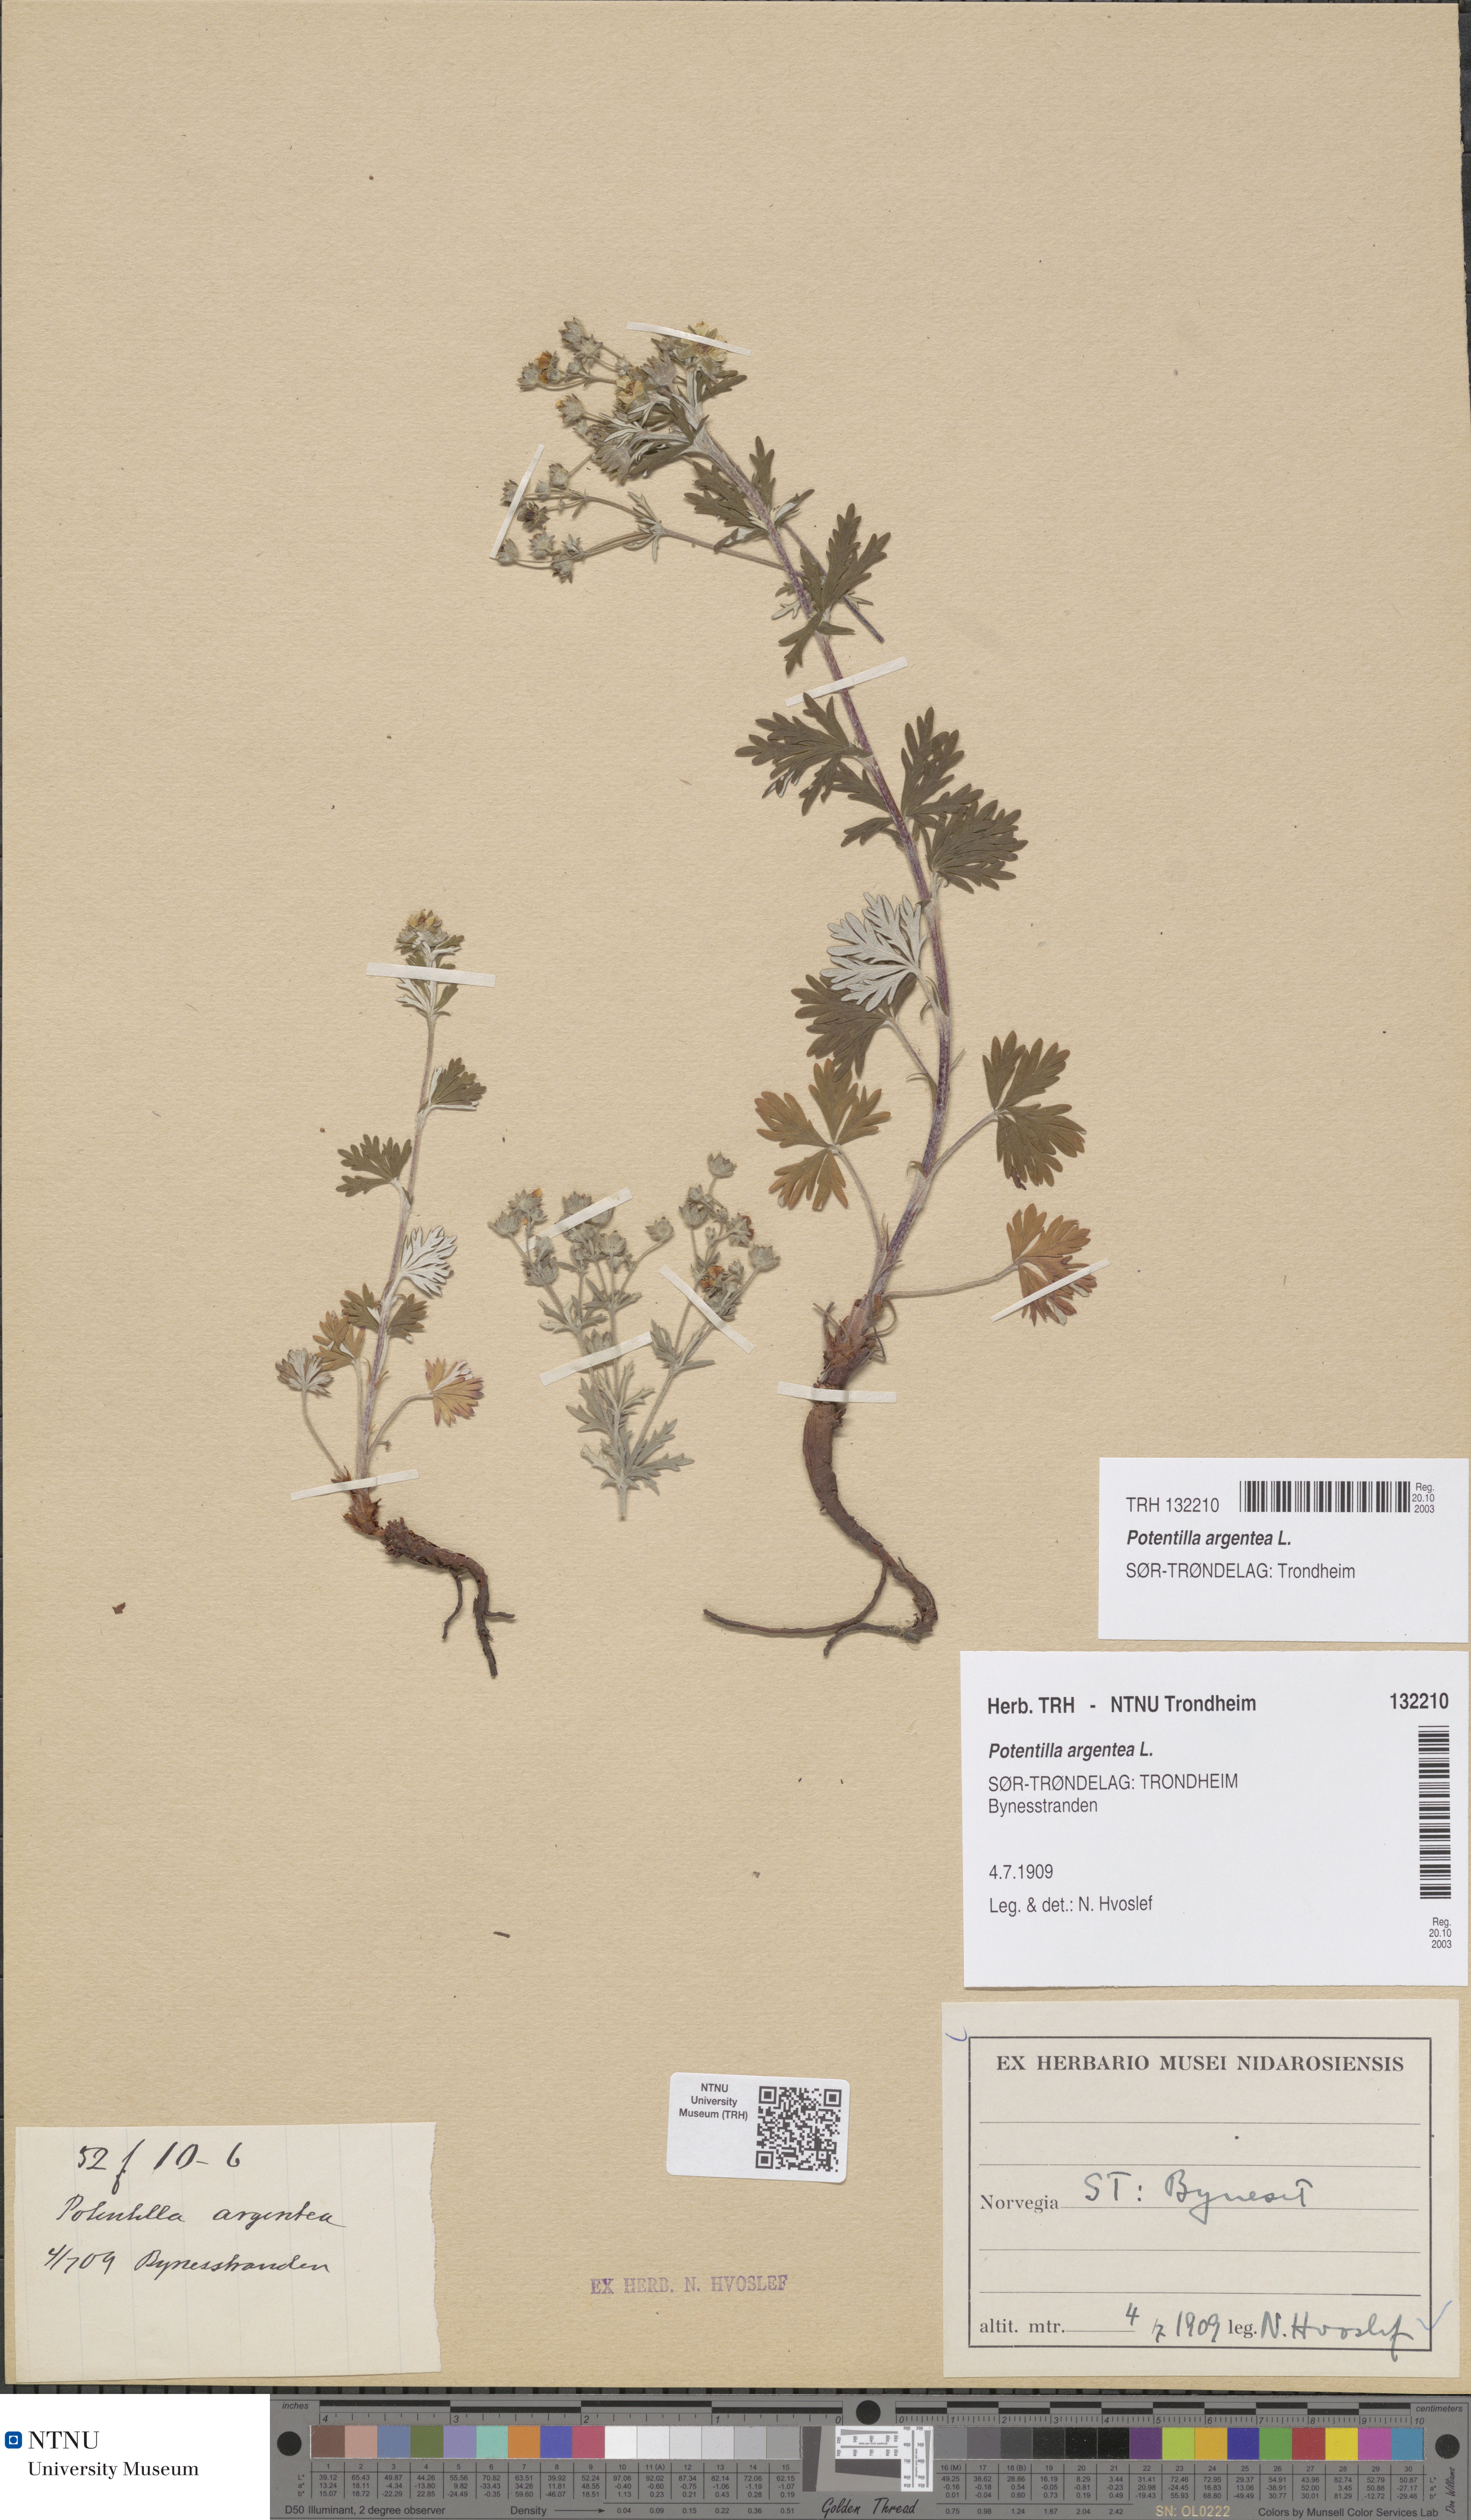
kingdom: Plantae
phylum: Tracheophyta
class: Magnoliopsida
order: Rosales
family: Rosaceae
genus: Potentilla
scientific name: Potentilla argentea
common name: Hoary cinquefoil
